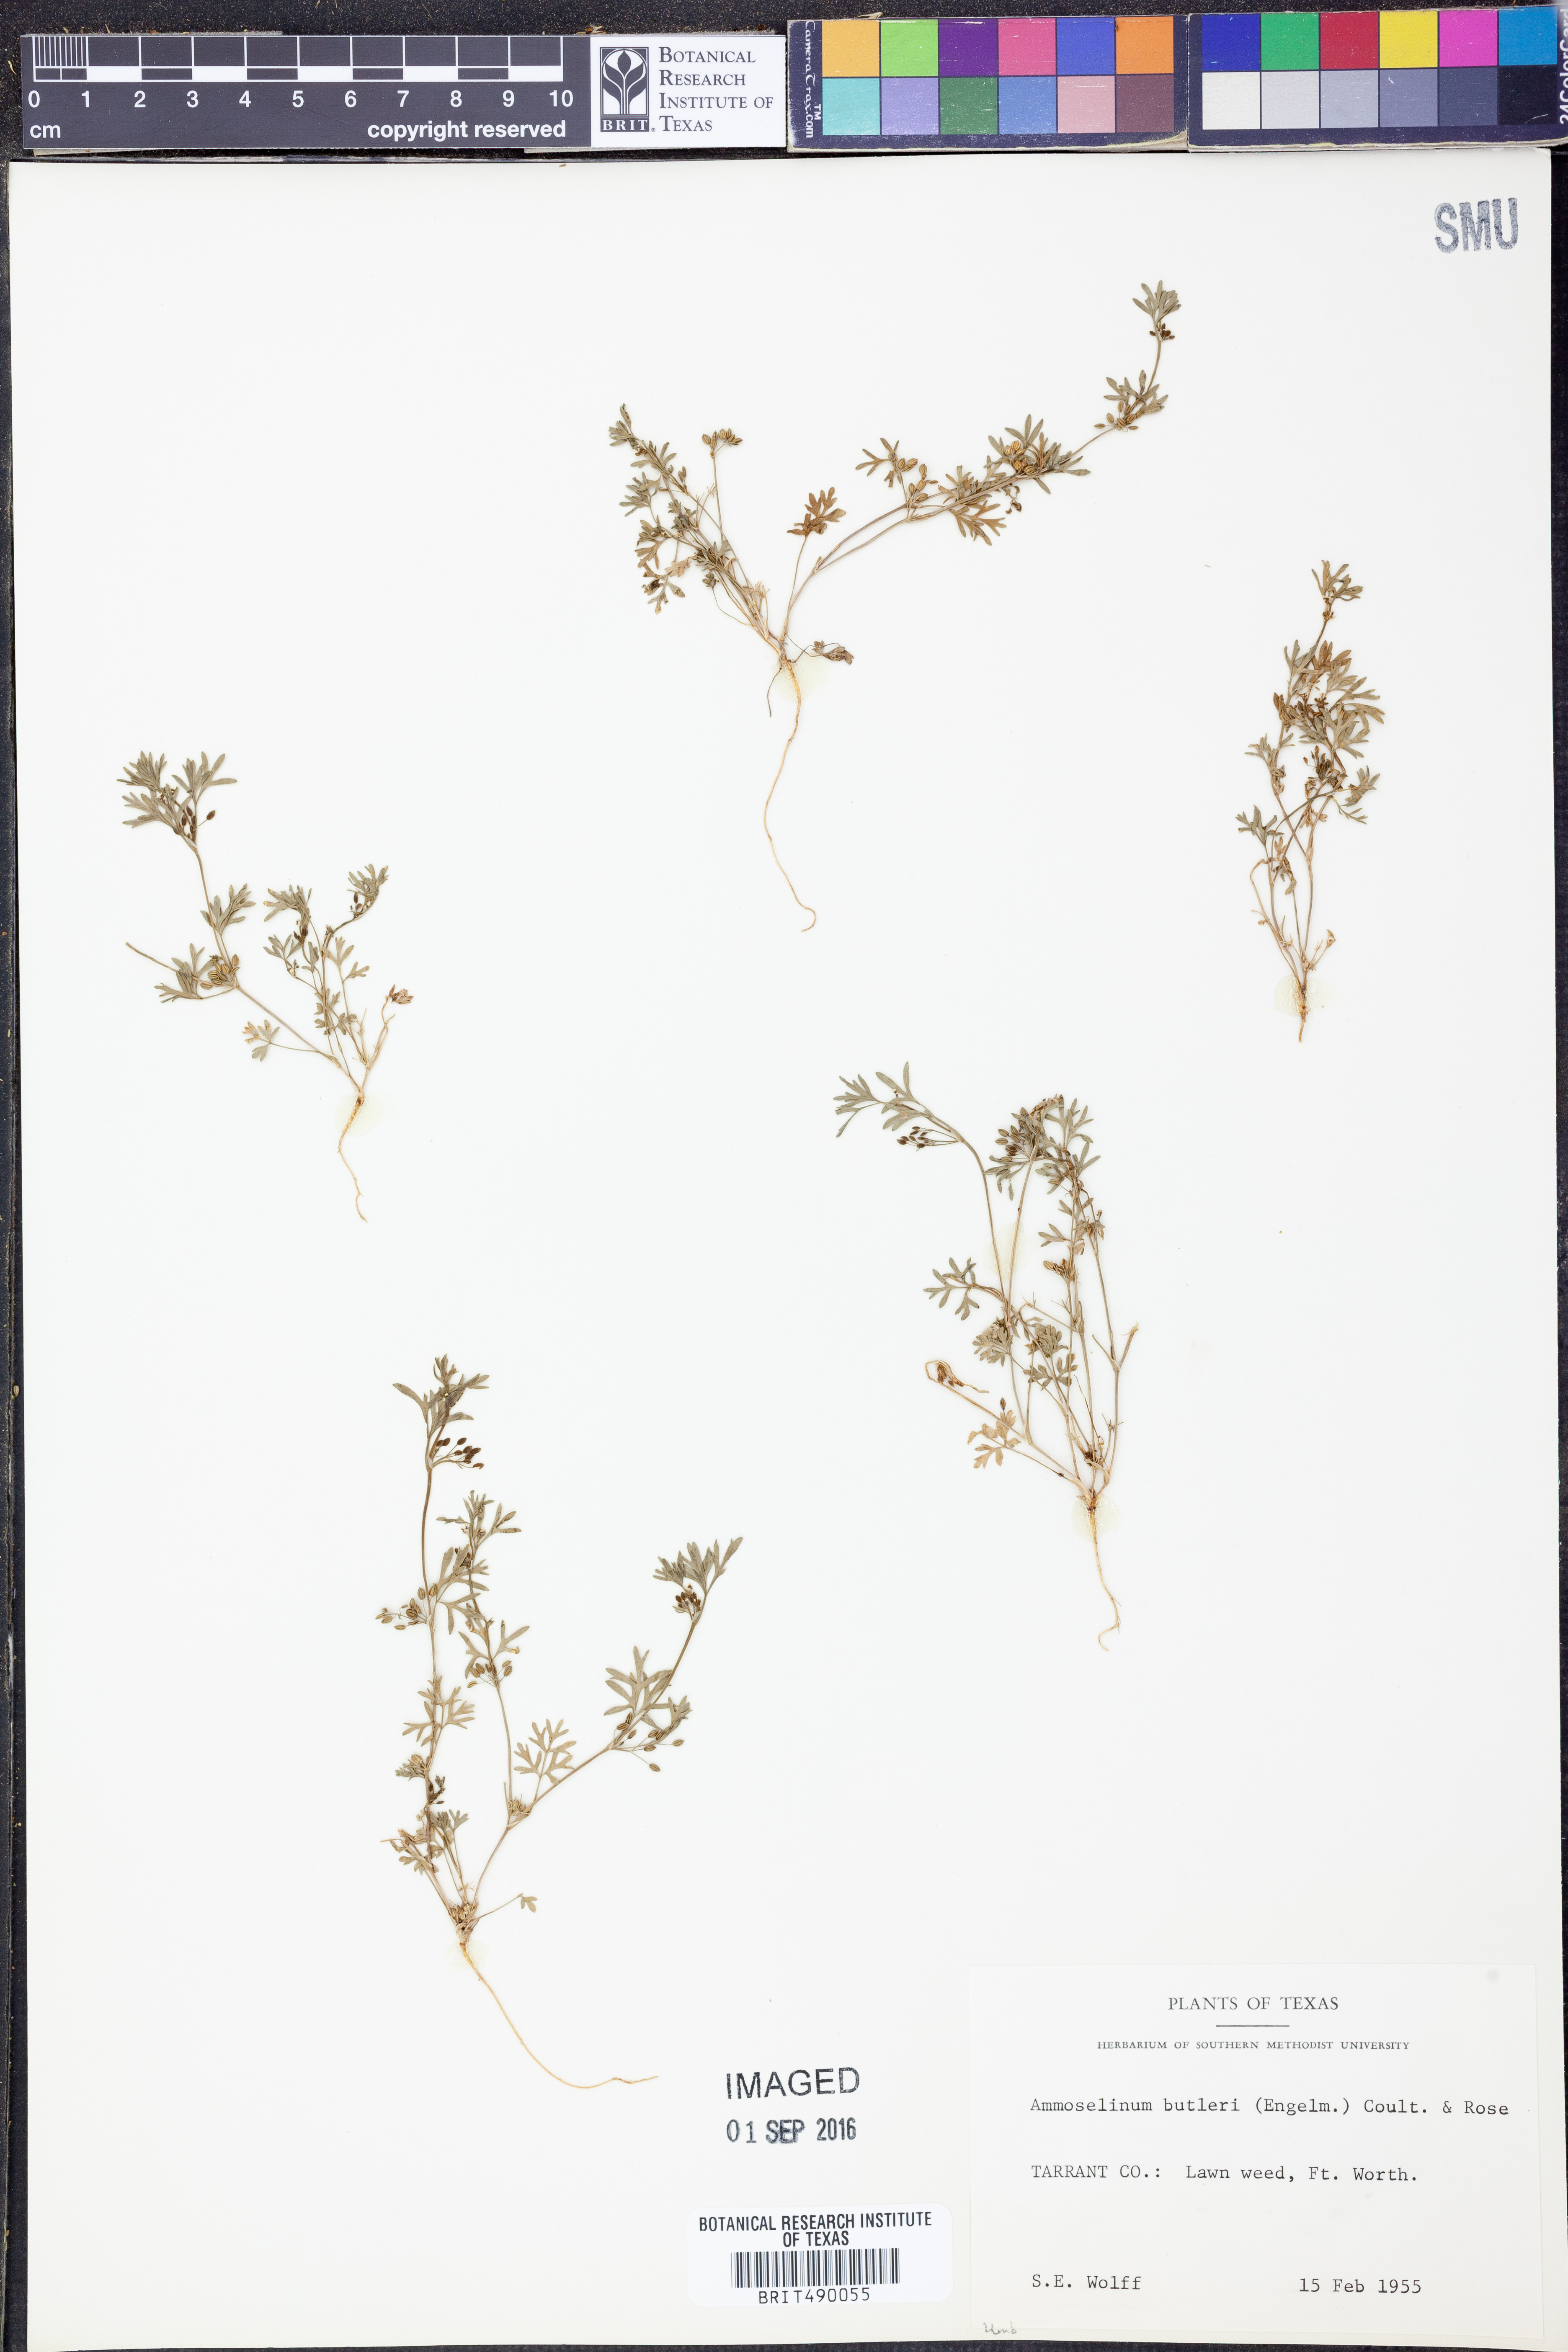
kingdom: Plantae
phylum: Tracheophyta
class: Magnoliopsida
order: Apiales
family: Apiaceae
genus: Ammoselinum
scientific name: Ammoselinum butleri
